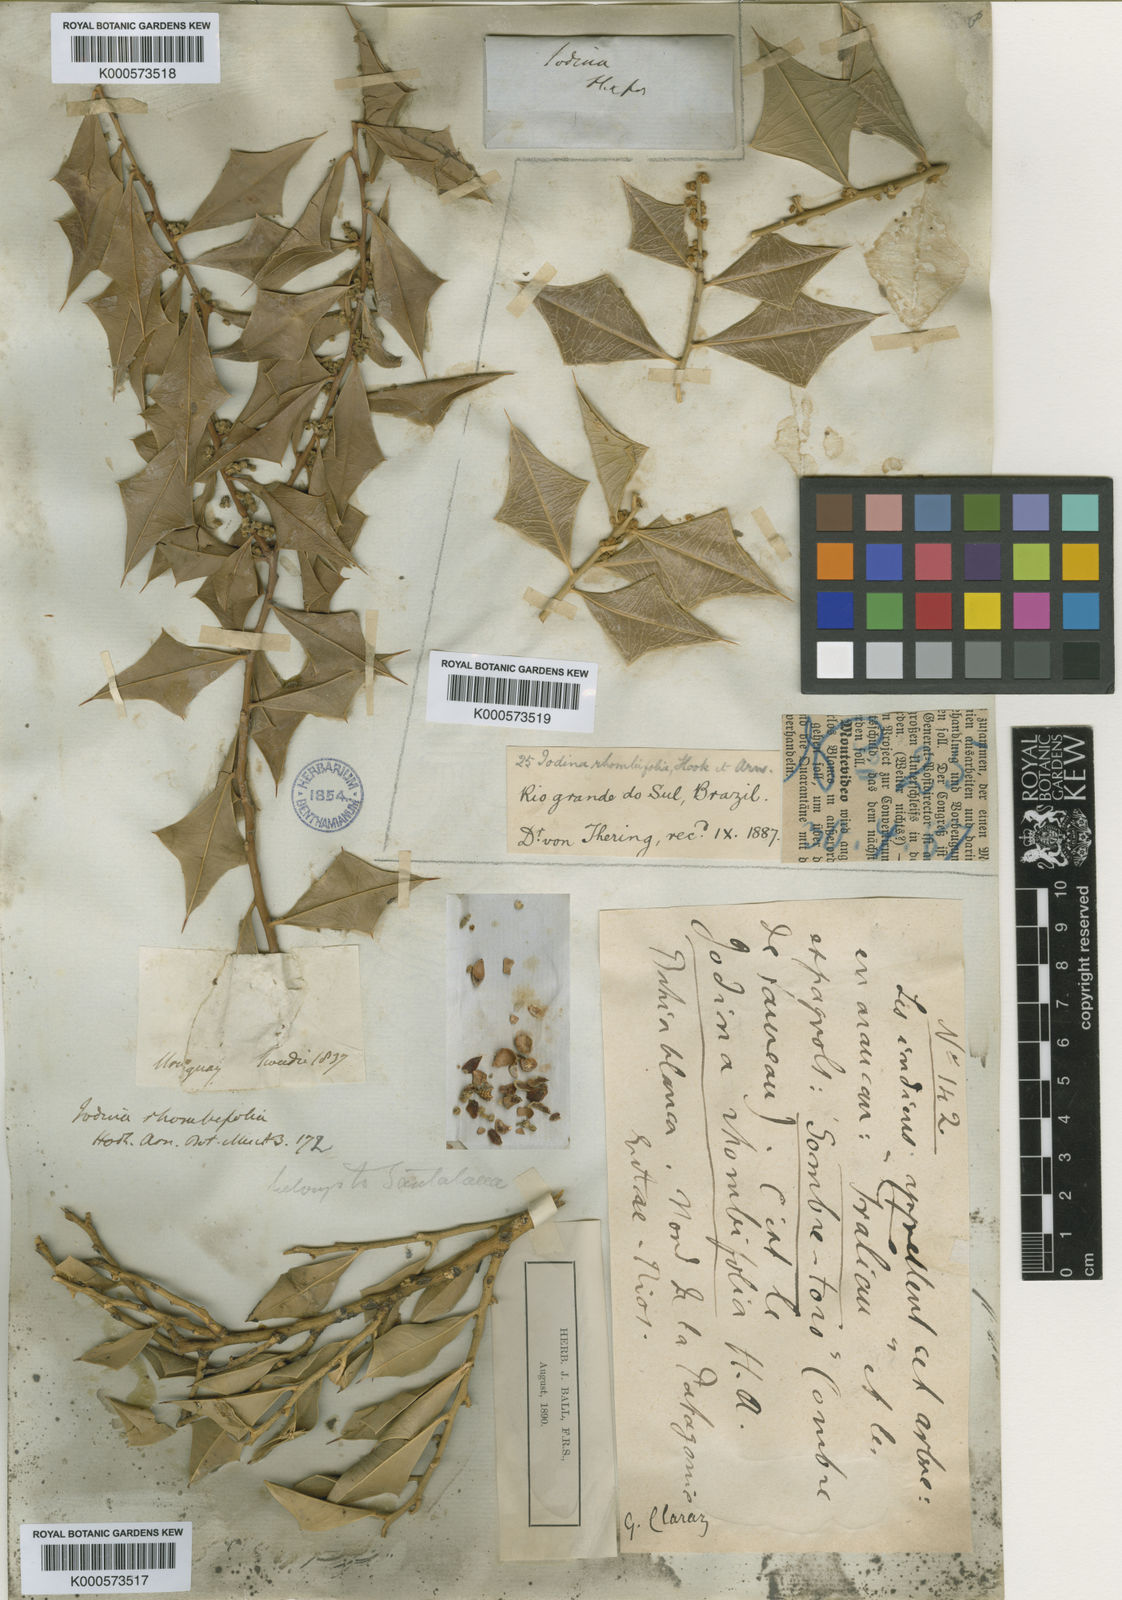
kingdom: Plantae
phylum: Tracheophyta
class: Magnoliopsida
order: Santalales
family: Cervantesiaceae
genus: Jodina
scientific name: Jodina rhombifolia
